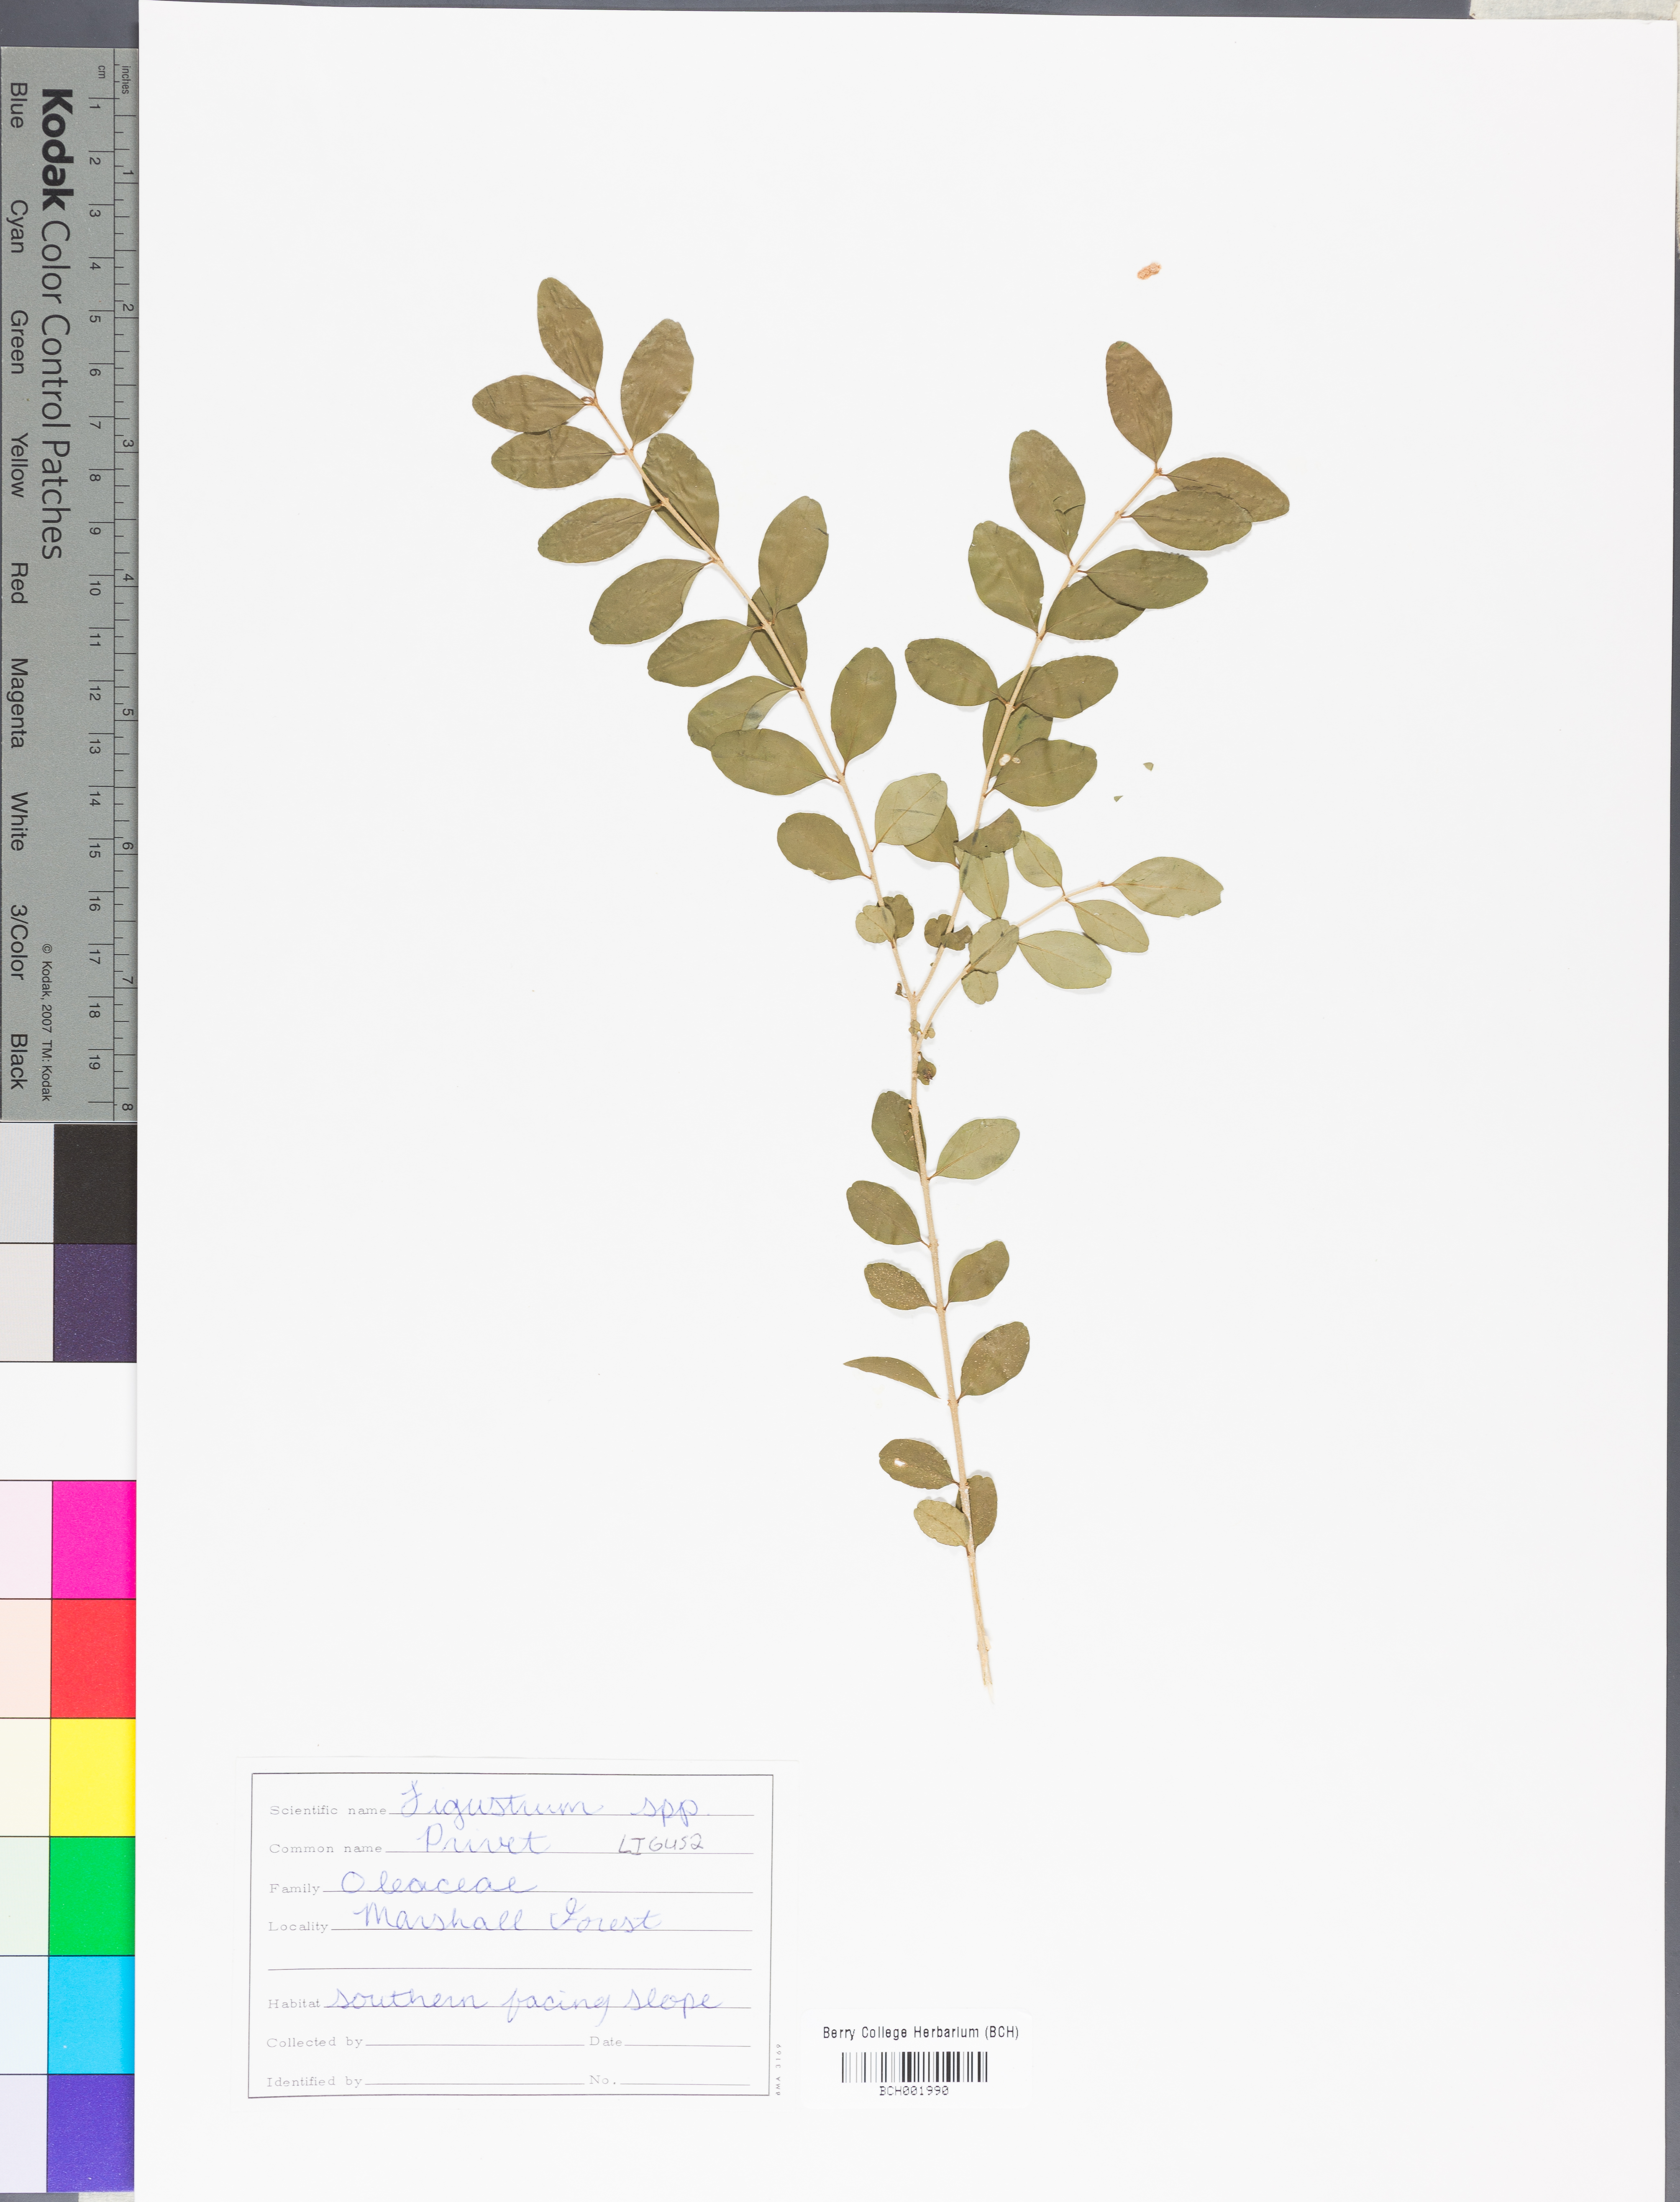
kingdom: Plantae
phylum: Tracheophyta
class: Magnoliopsida
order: Lamiales
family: Oleaceae
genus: Ligustrum
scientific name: Ligustrum
